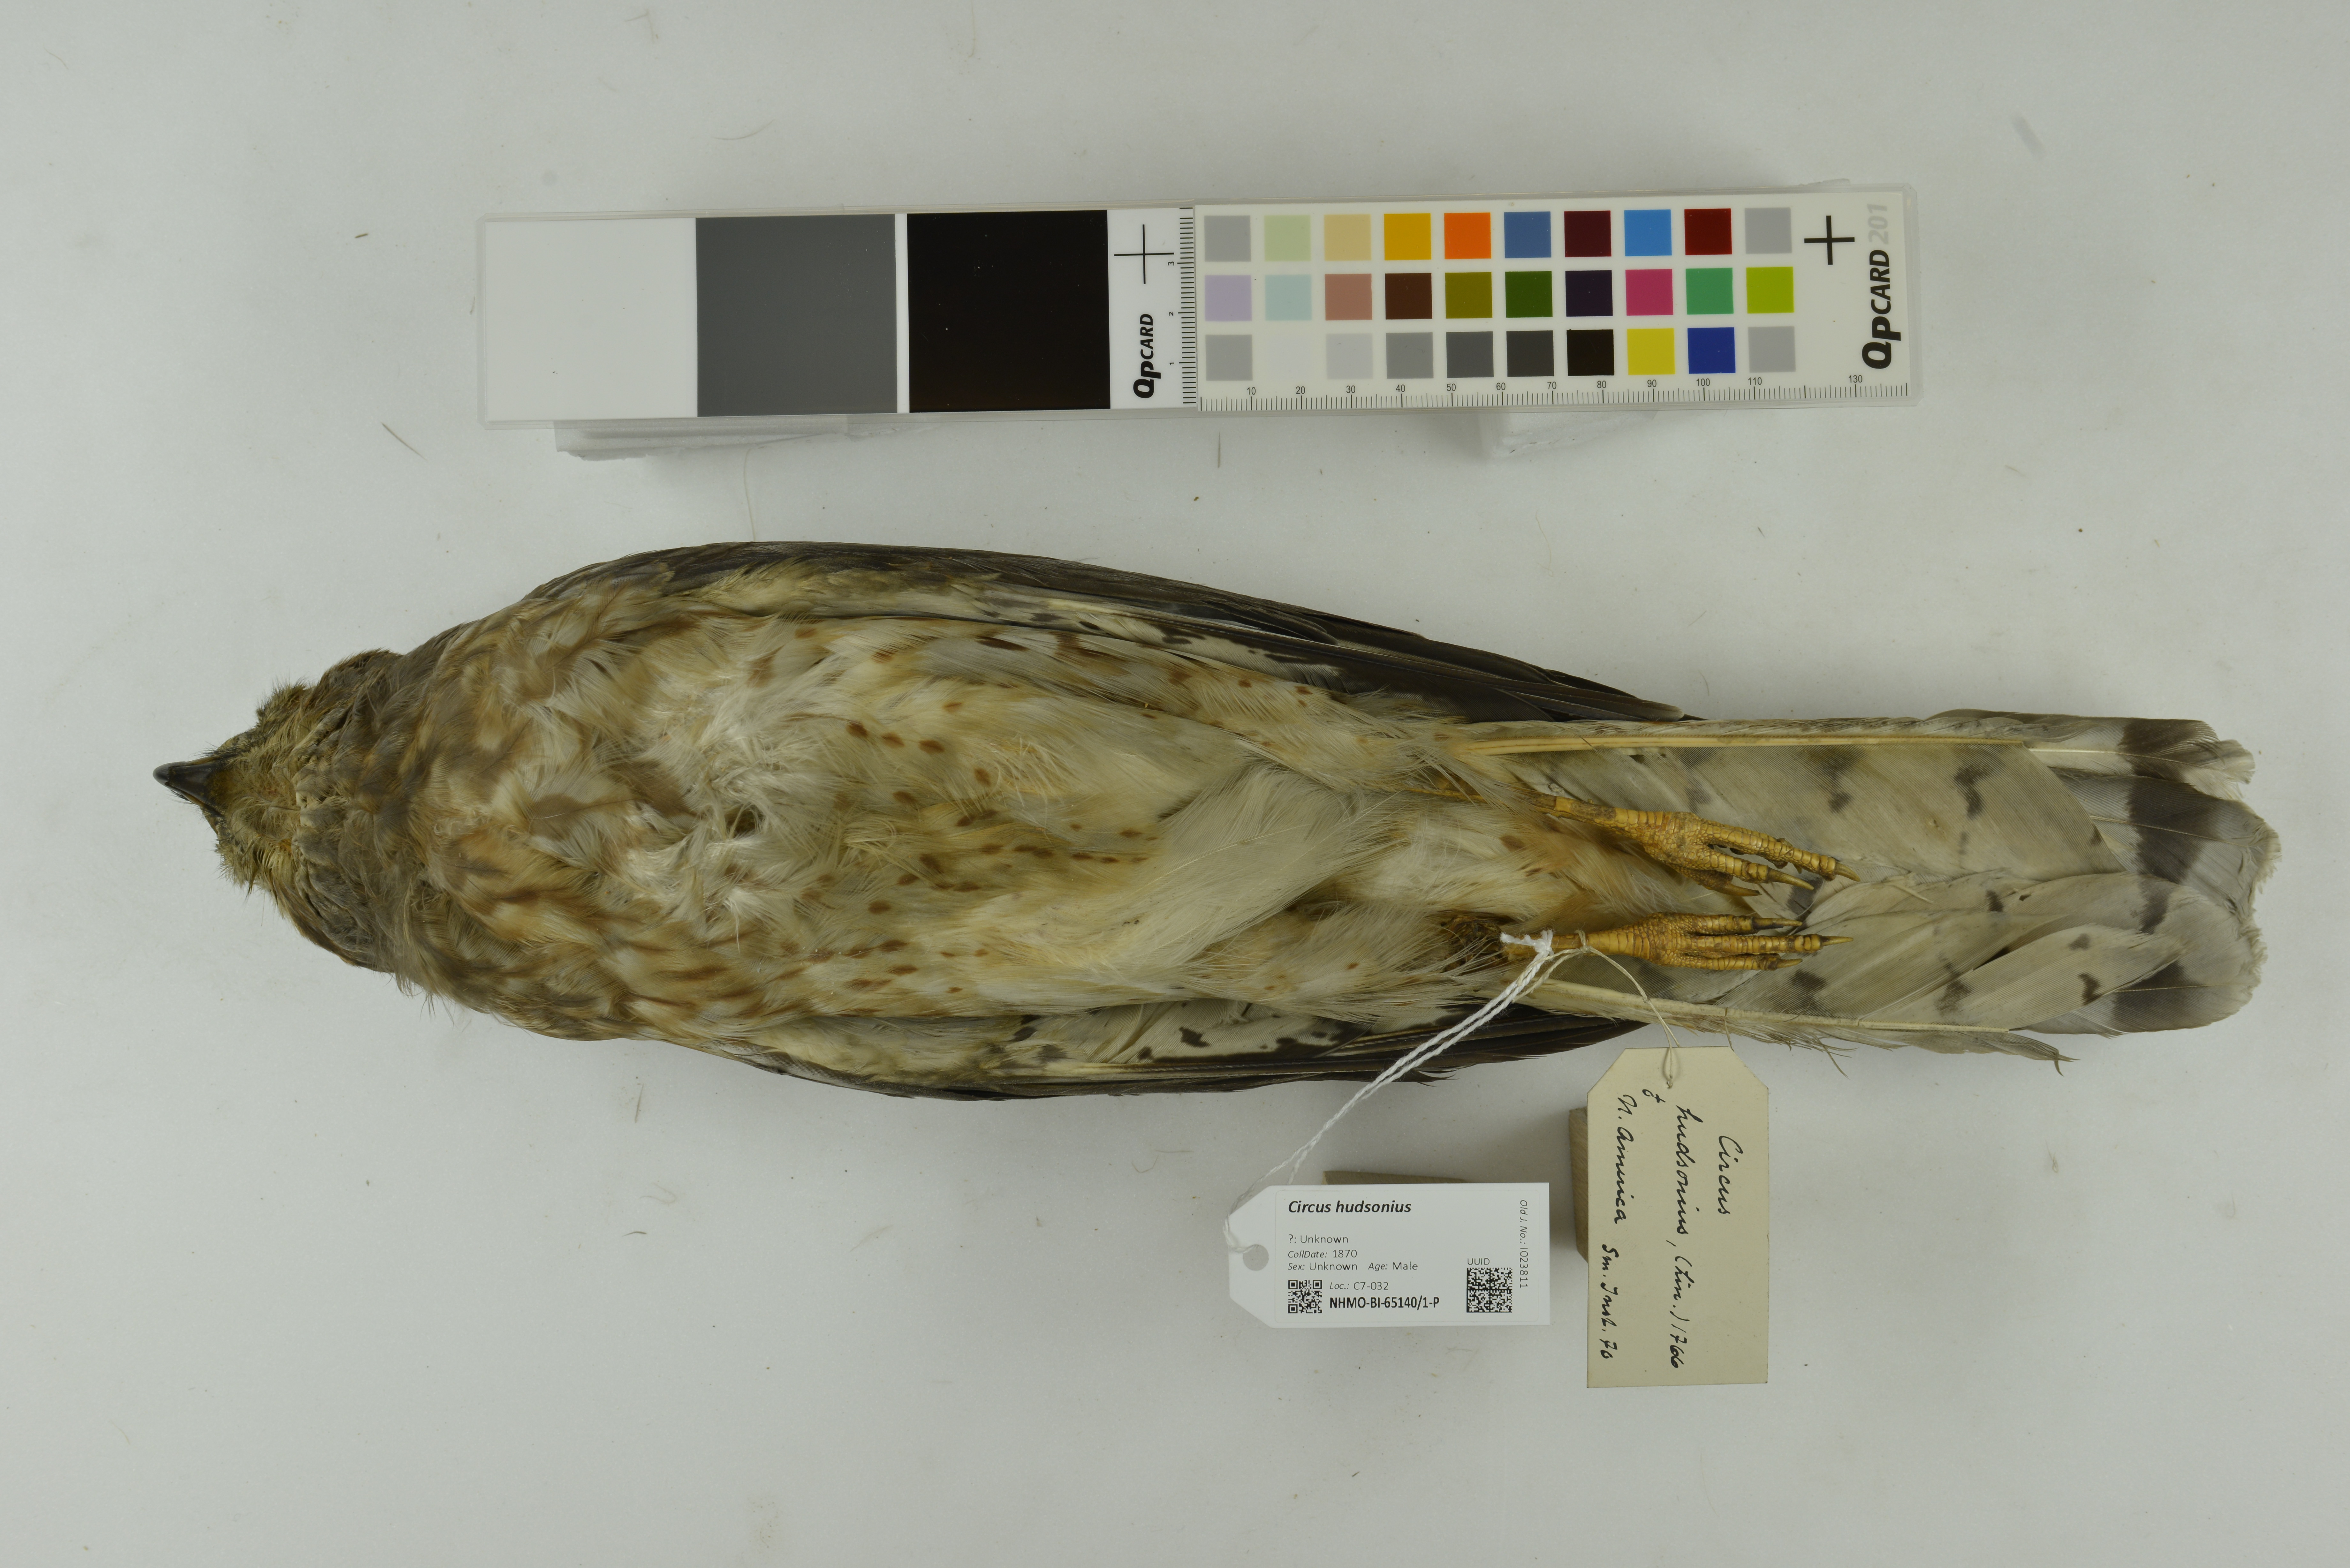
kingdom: Animalia
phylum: Chordata
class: Aves
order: Accipitriformes
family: Accipitridae
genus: Circus
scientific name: Circus cyaneus
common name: Hen harrier
